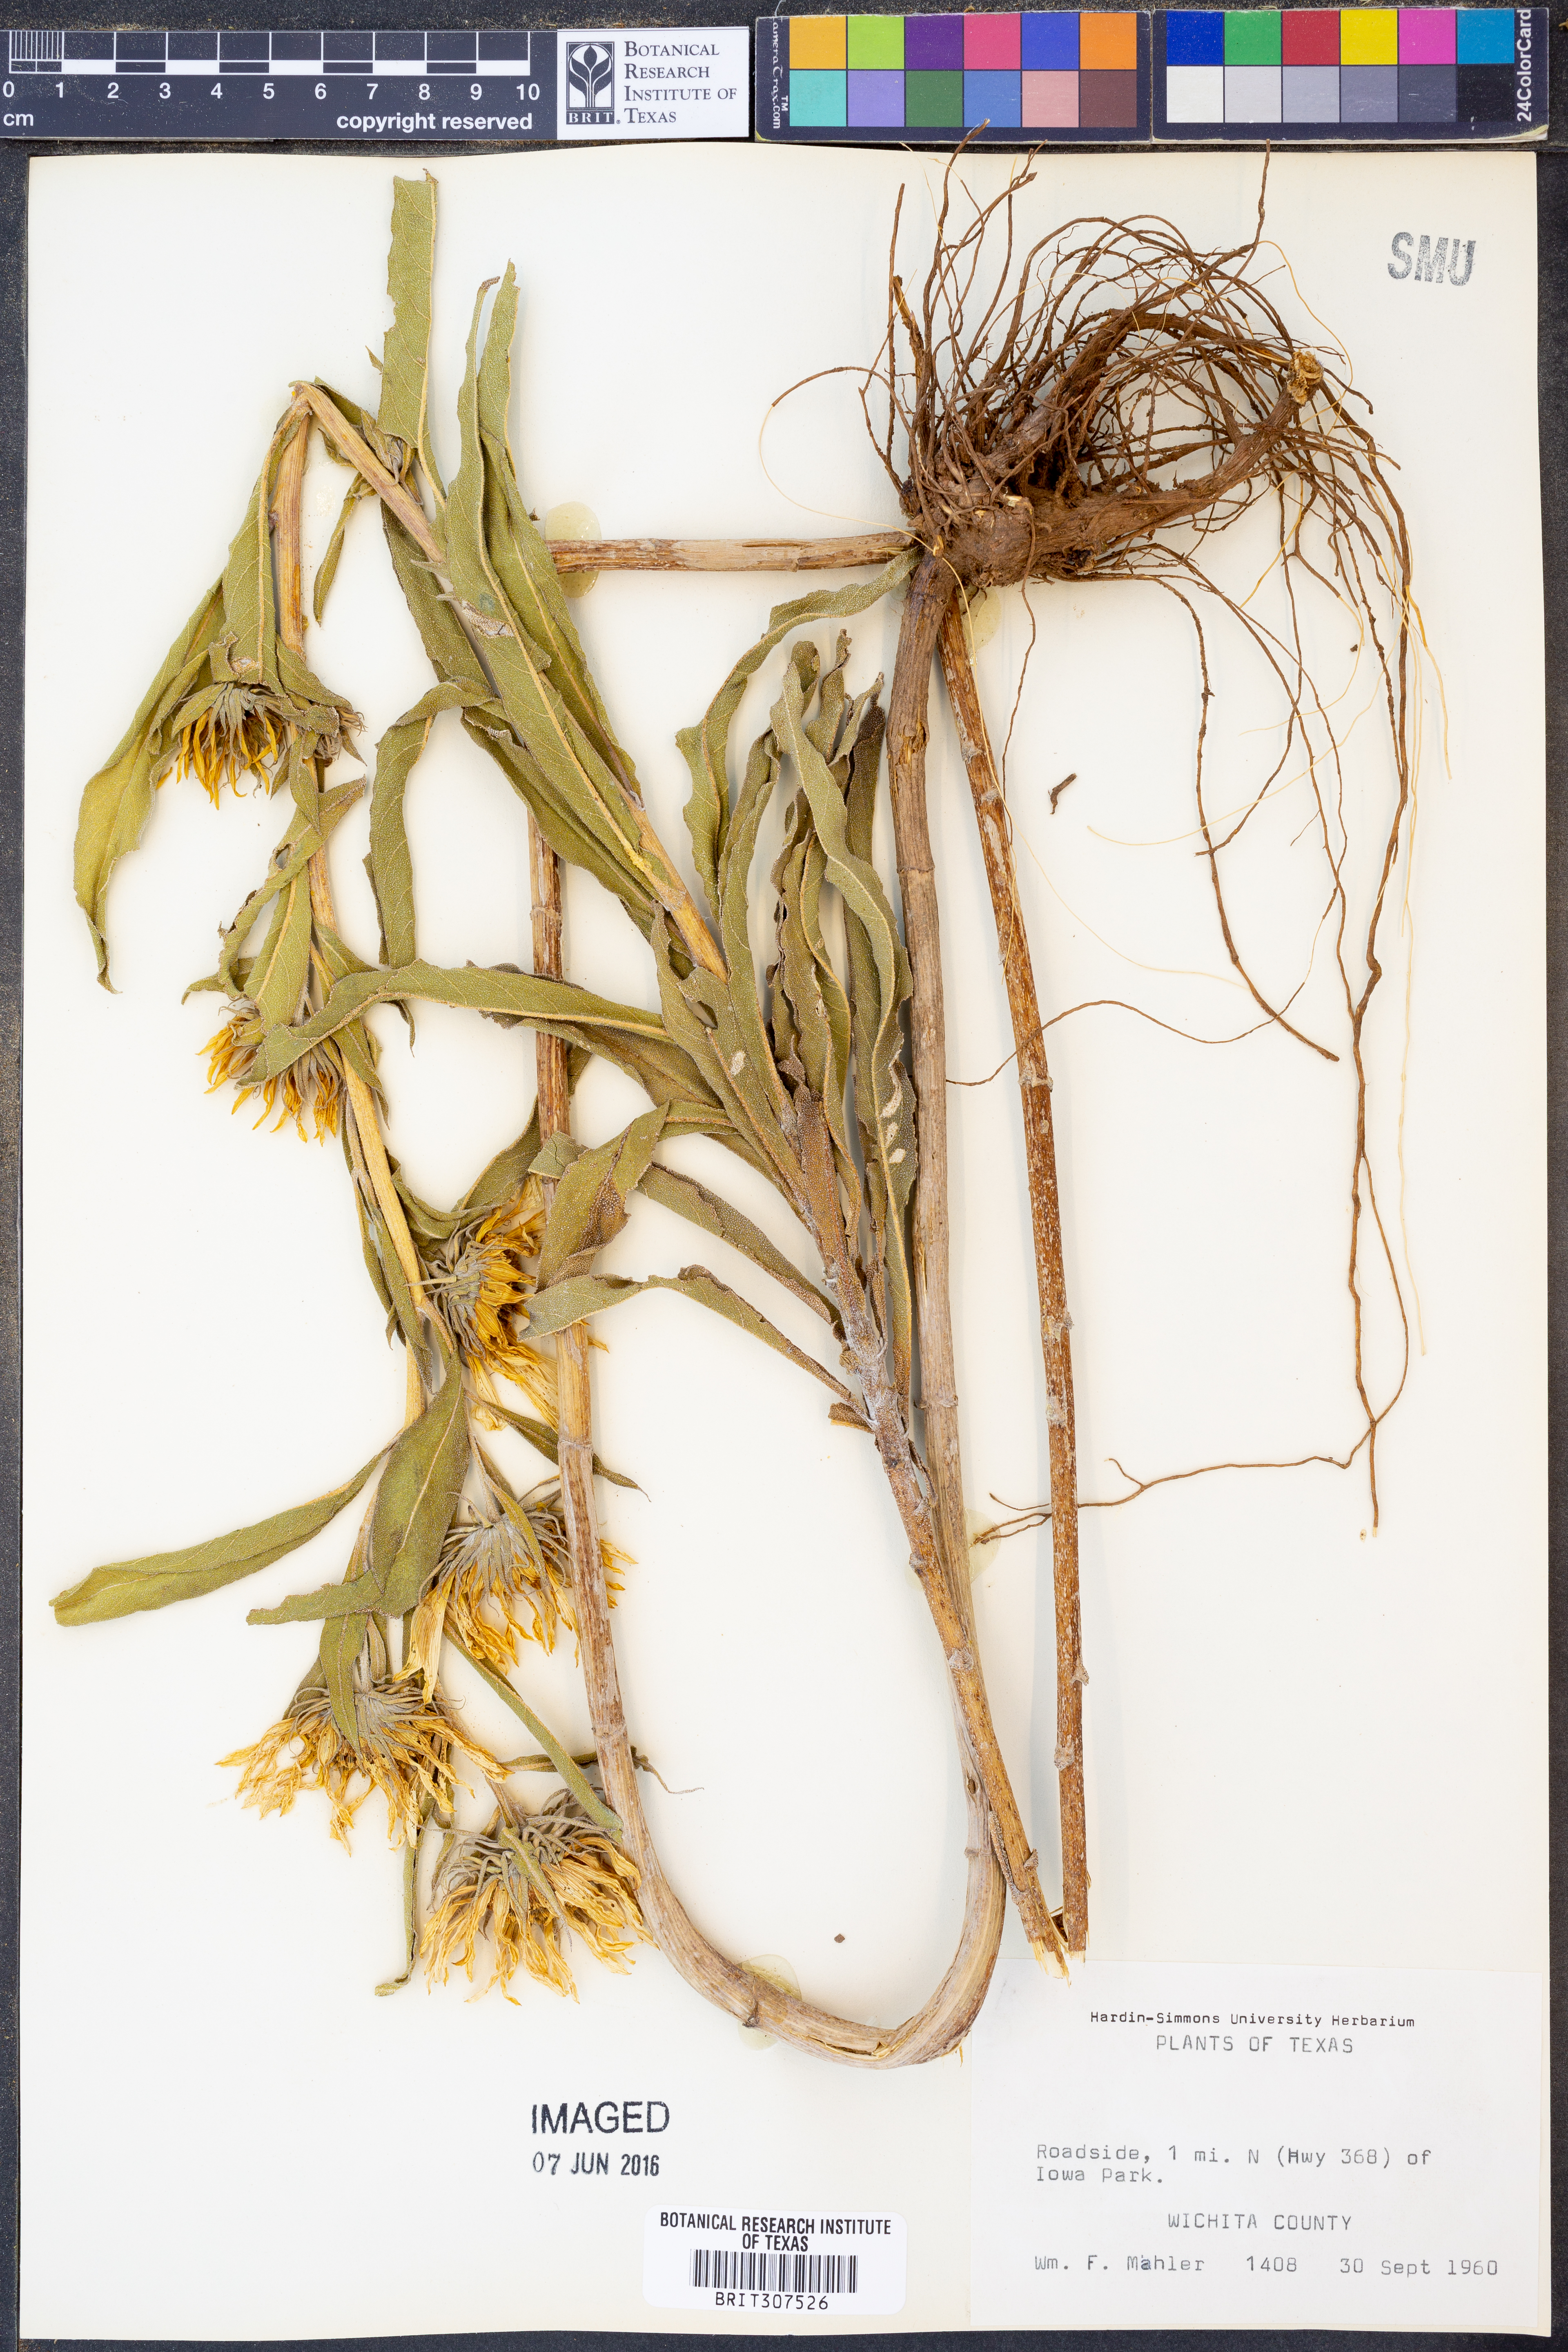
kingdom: Plantae
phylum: Tracheophyta
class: Magnoliopsida
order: Asterales
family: Asteraceae
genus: Helianthus
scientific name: Helianthus maximiliani
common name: Maximilian's sunflower
